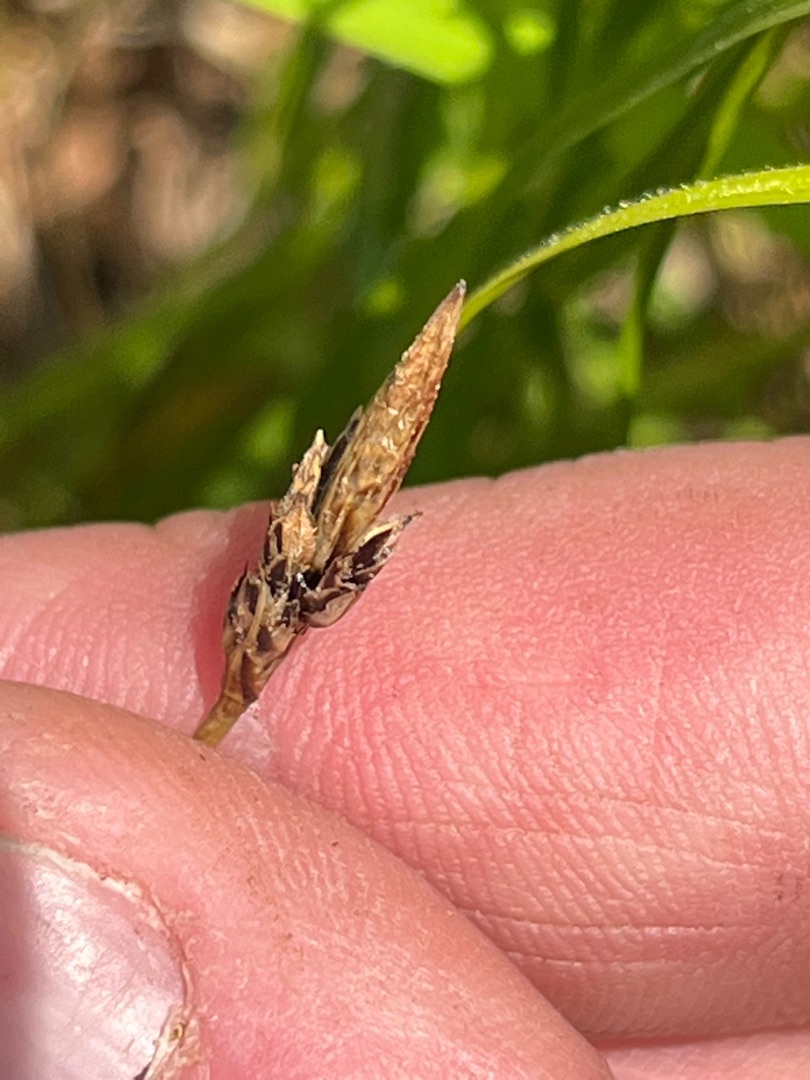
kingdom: Plantae
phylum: Tracheophyta
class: Liliopsida
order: Poales
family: Cyperaceae
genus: Carex
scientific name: Carex montana
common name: Bakke-star
